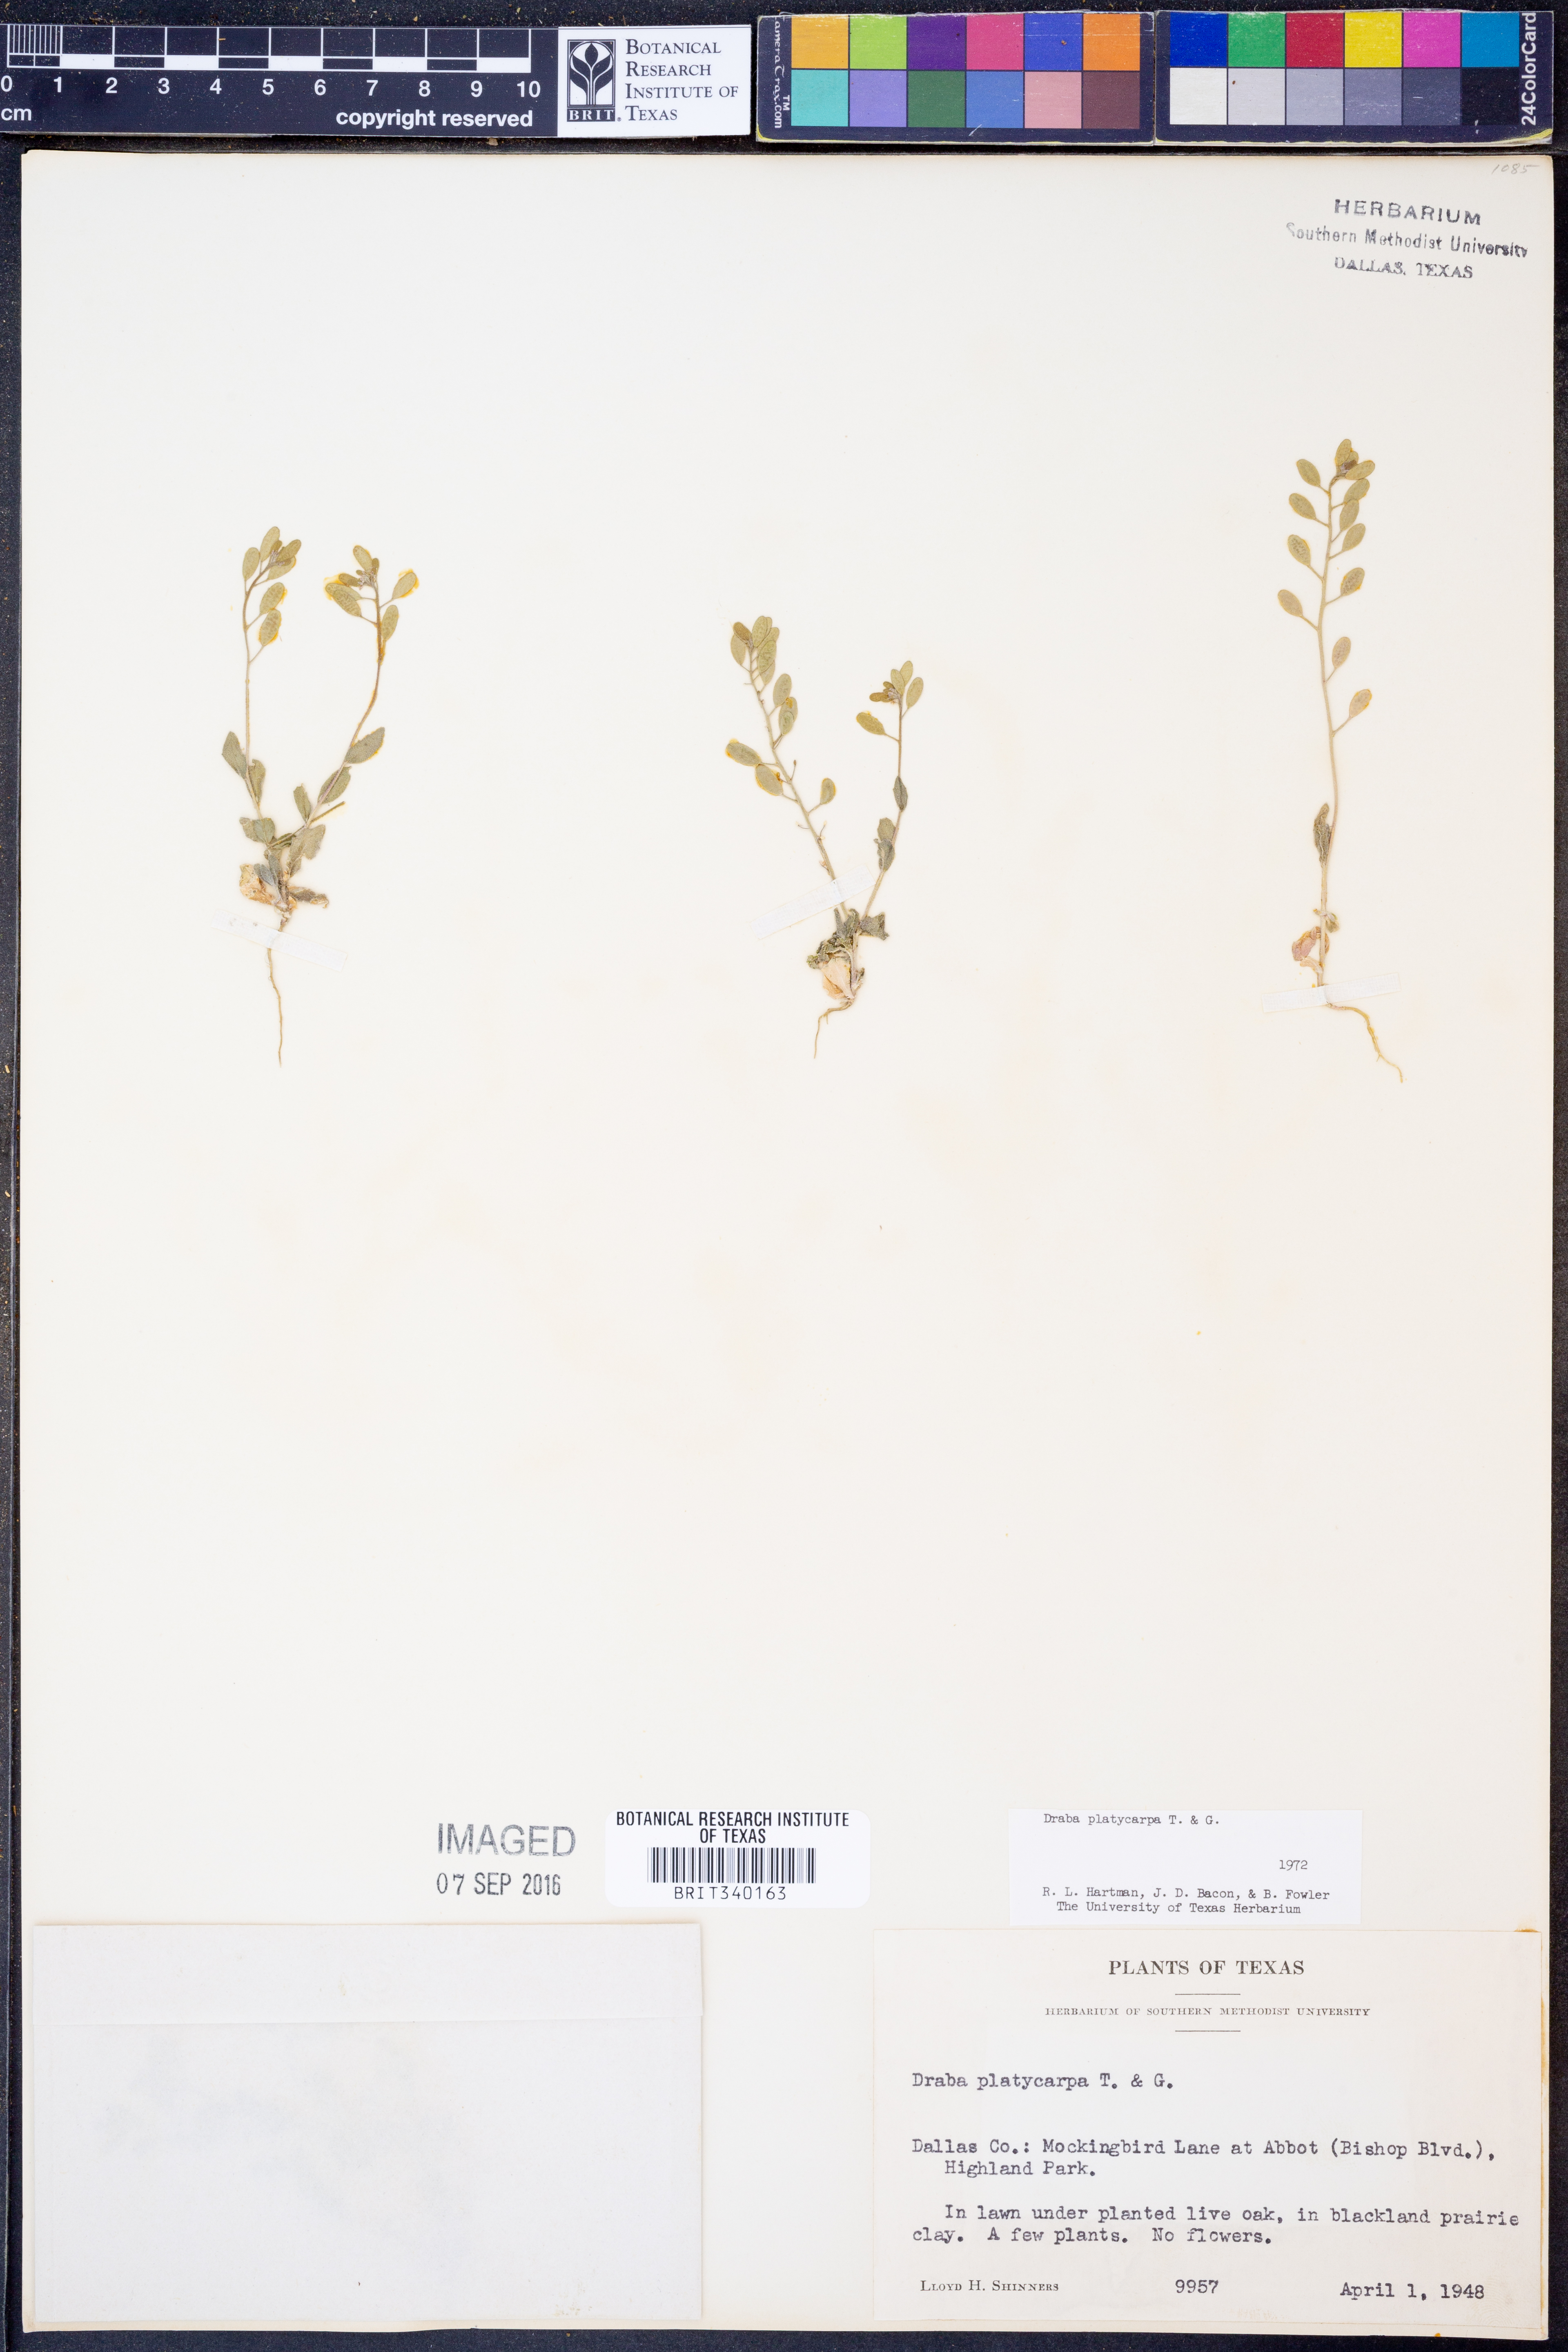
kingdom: Plantae
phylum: Tracheophyta
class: Magnoliopsida
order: Brassicales
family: Brassicaceae
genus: Tomostima
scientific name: Tomostima platycarpa
